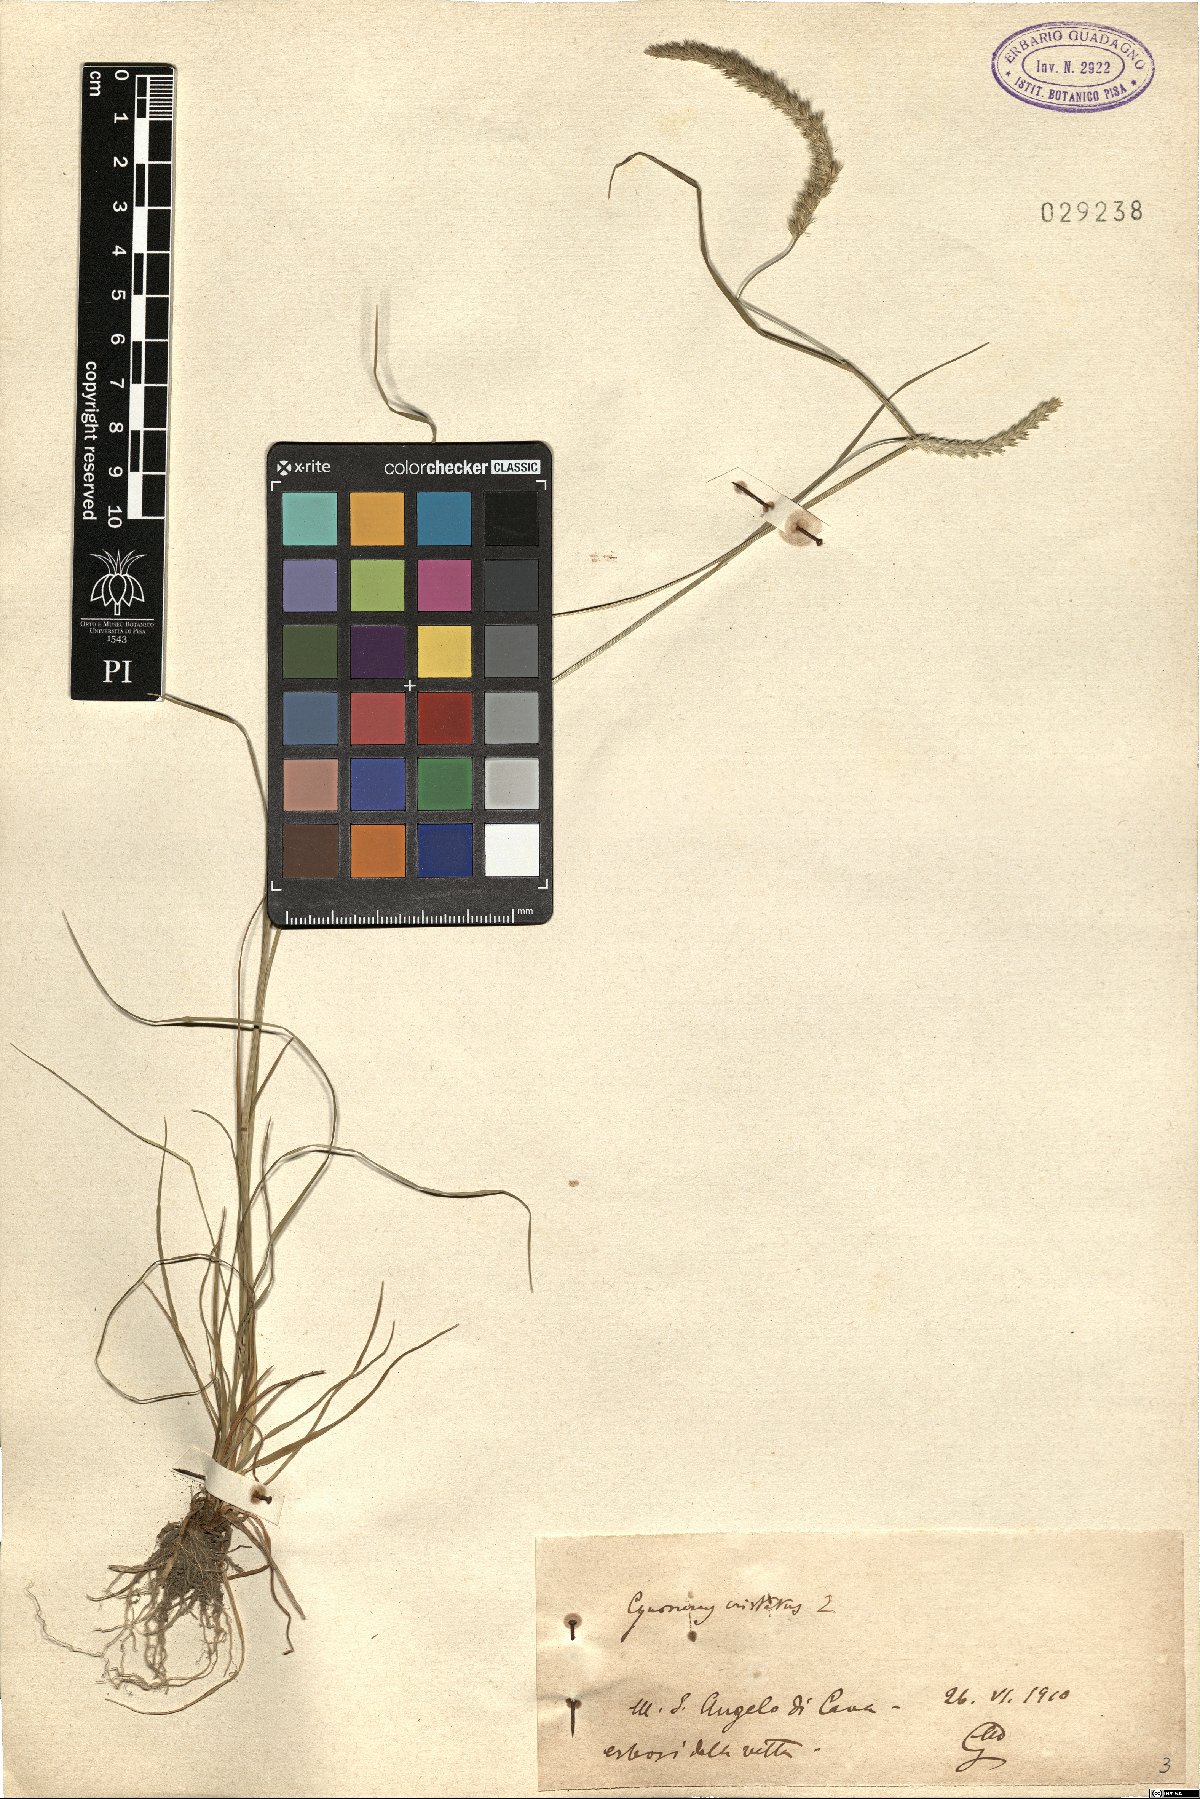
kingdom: Plantae
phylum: Tracheophyta
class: Liliopsida
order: Poales
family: Poaceae
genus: Cynosurus
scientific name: Cynosurus cristatus
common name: Crested dog's-tail
